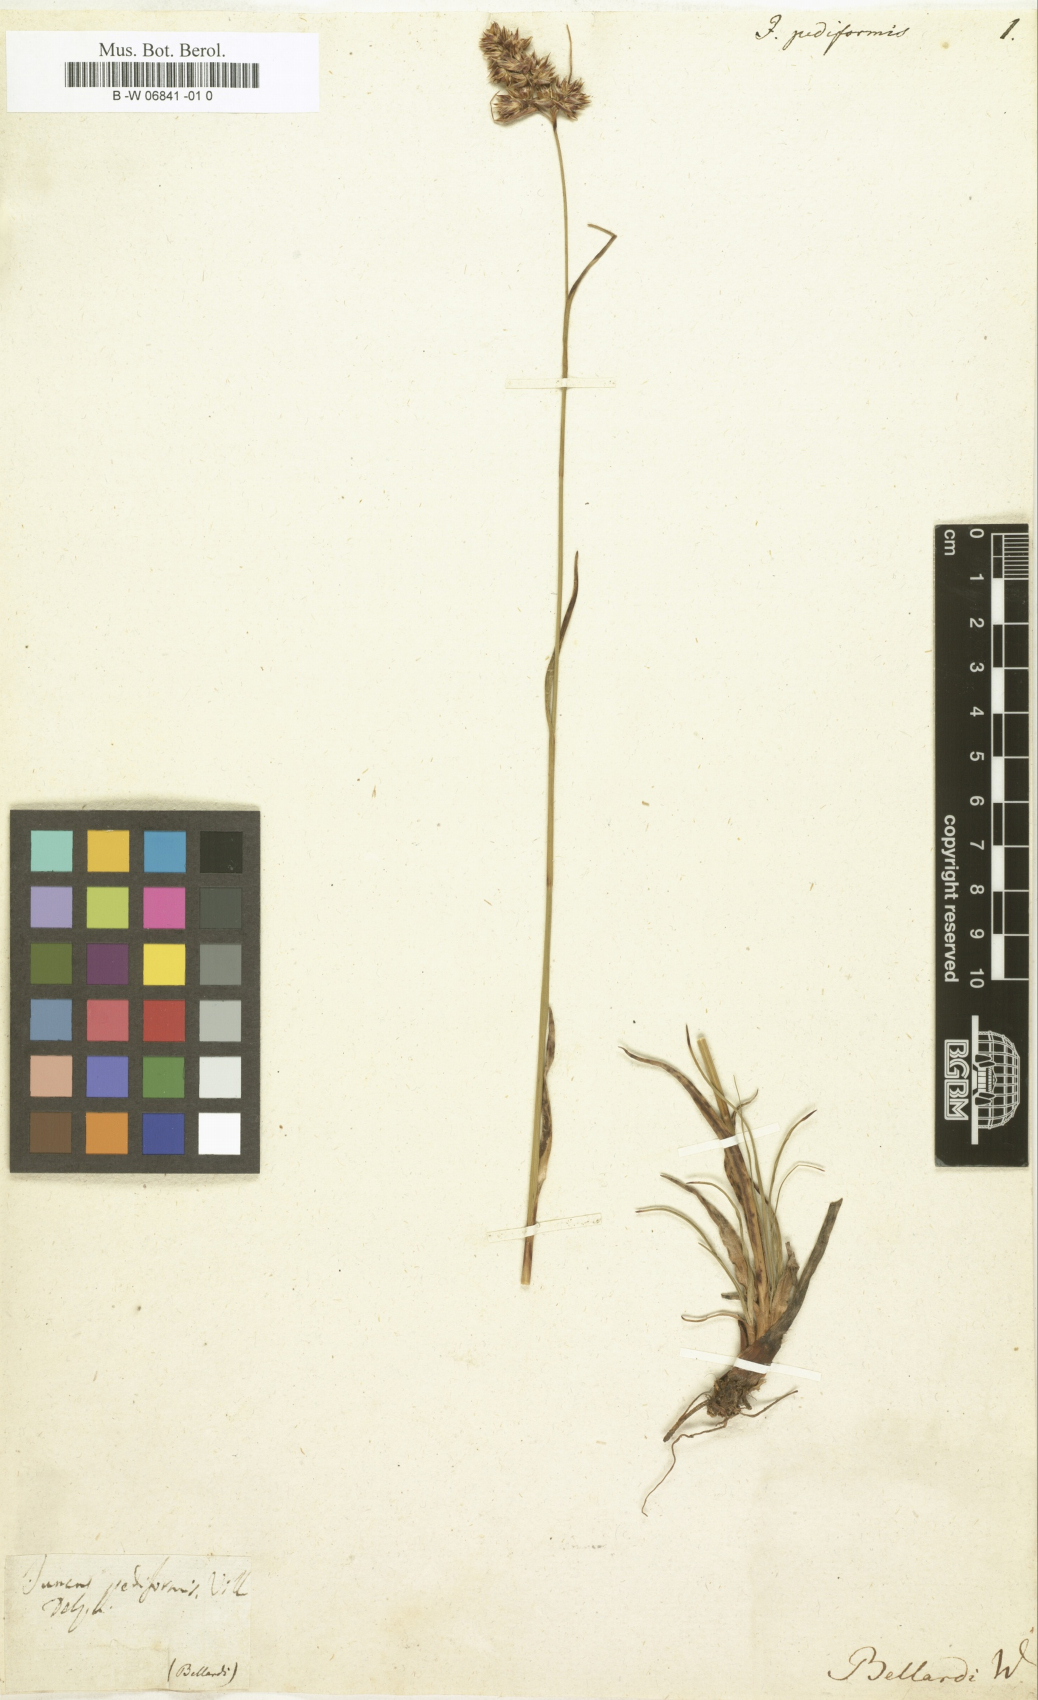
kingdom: Plantae
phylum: Tracheophyta
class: Liliopsida
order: Poales
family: Juncaceae
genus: Luzula
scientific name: Luzula pediformis
